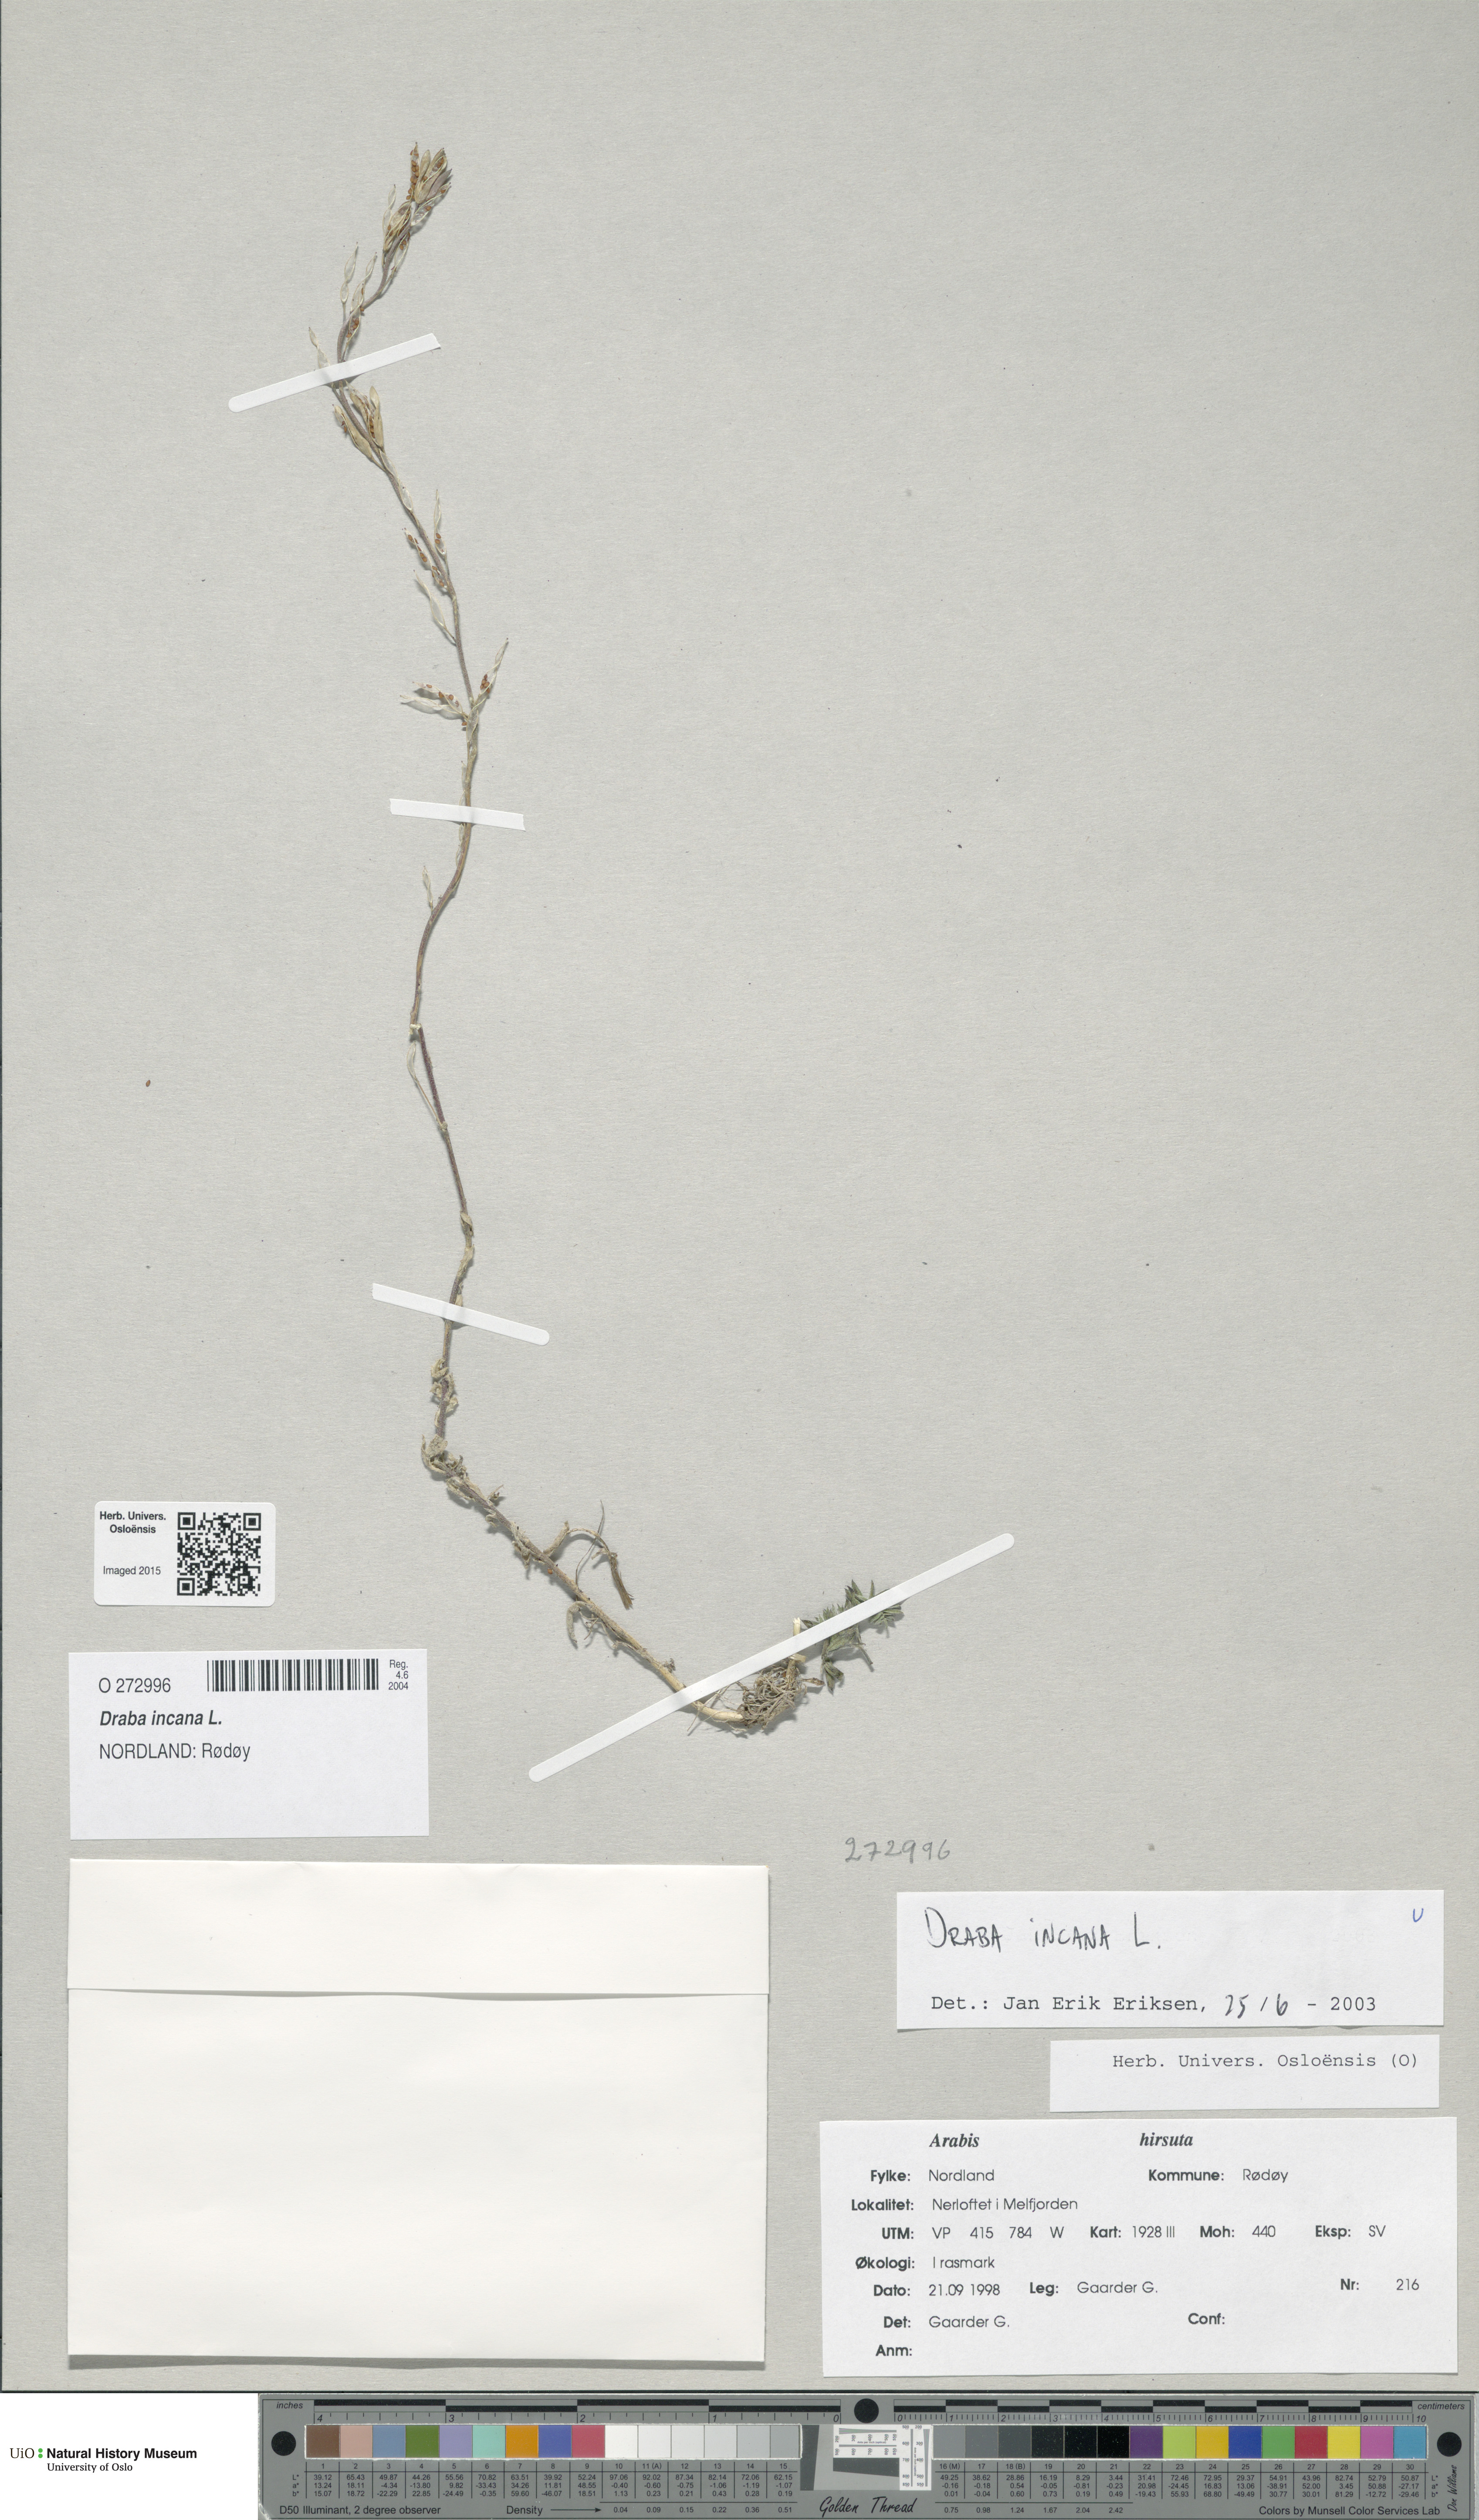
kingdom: Plantae
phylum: Tracheophyta
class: Magnoliopsida
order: Brassicales
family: Brassicaceae
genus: Draba
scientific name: Draba incana
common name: Hoary whitlow-grass
